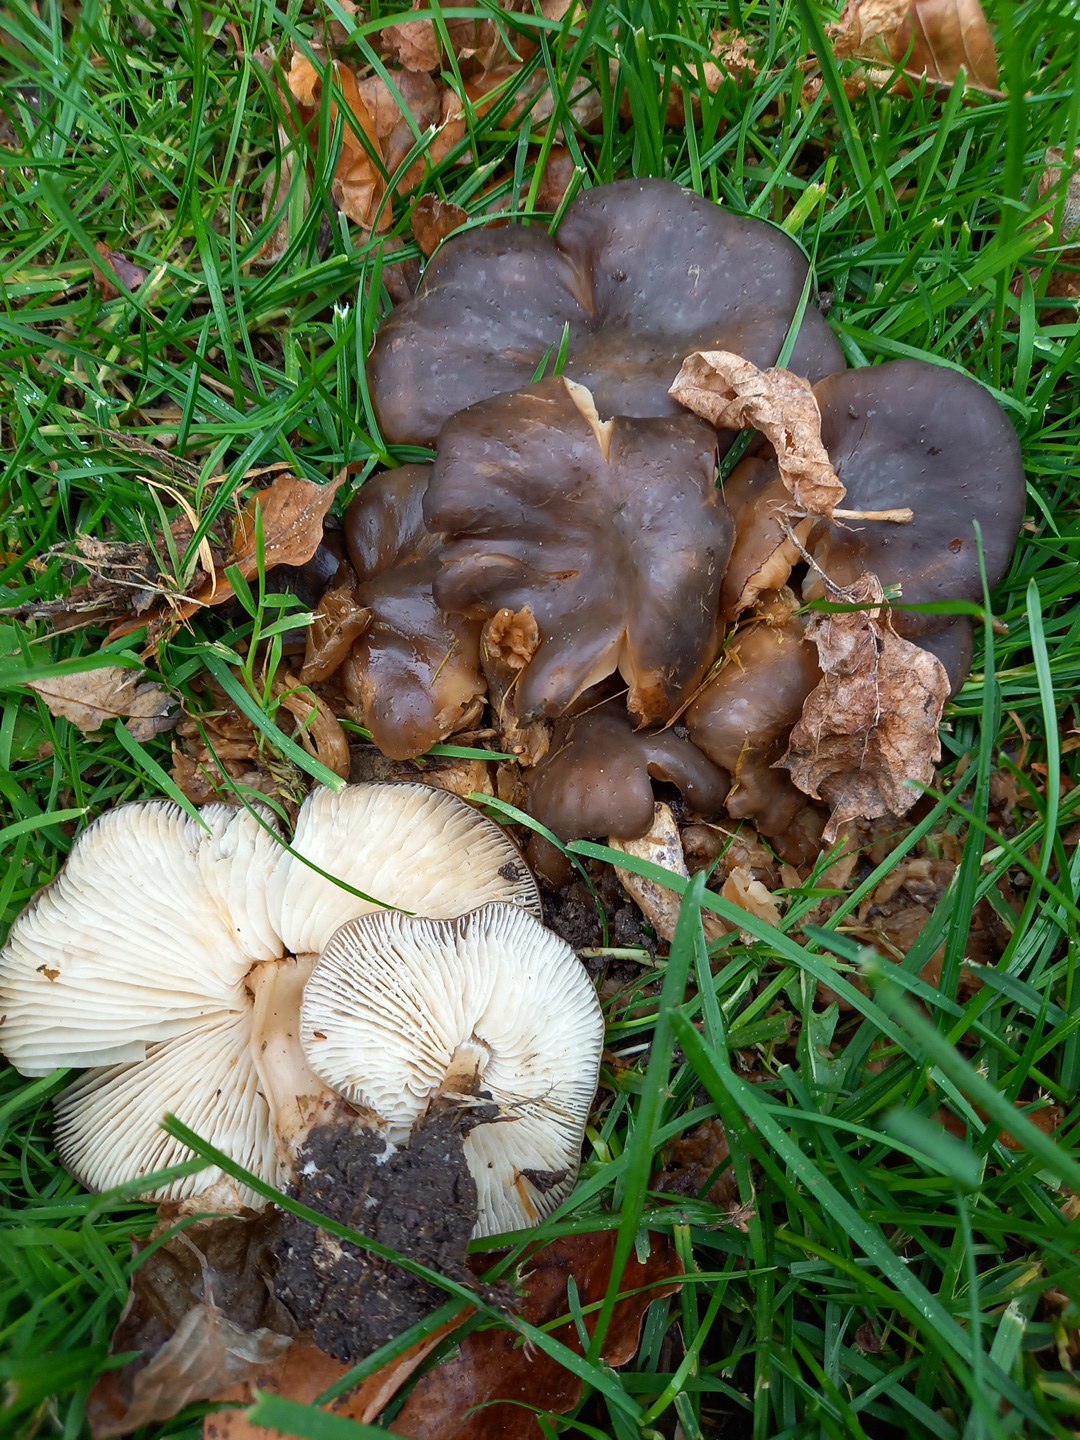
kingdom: Fungi
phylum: Basidiomycota
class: Agaricomycetes
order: Agaricales
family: Lyophyllaceae
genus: Lyophyllum
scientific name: Lyophyllum decastes
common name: røggrå gråblad
